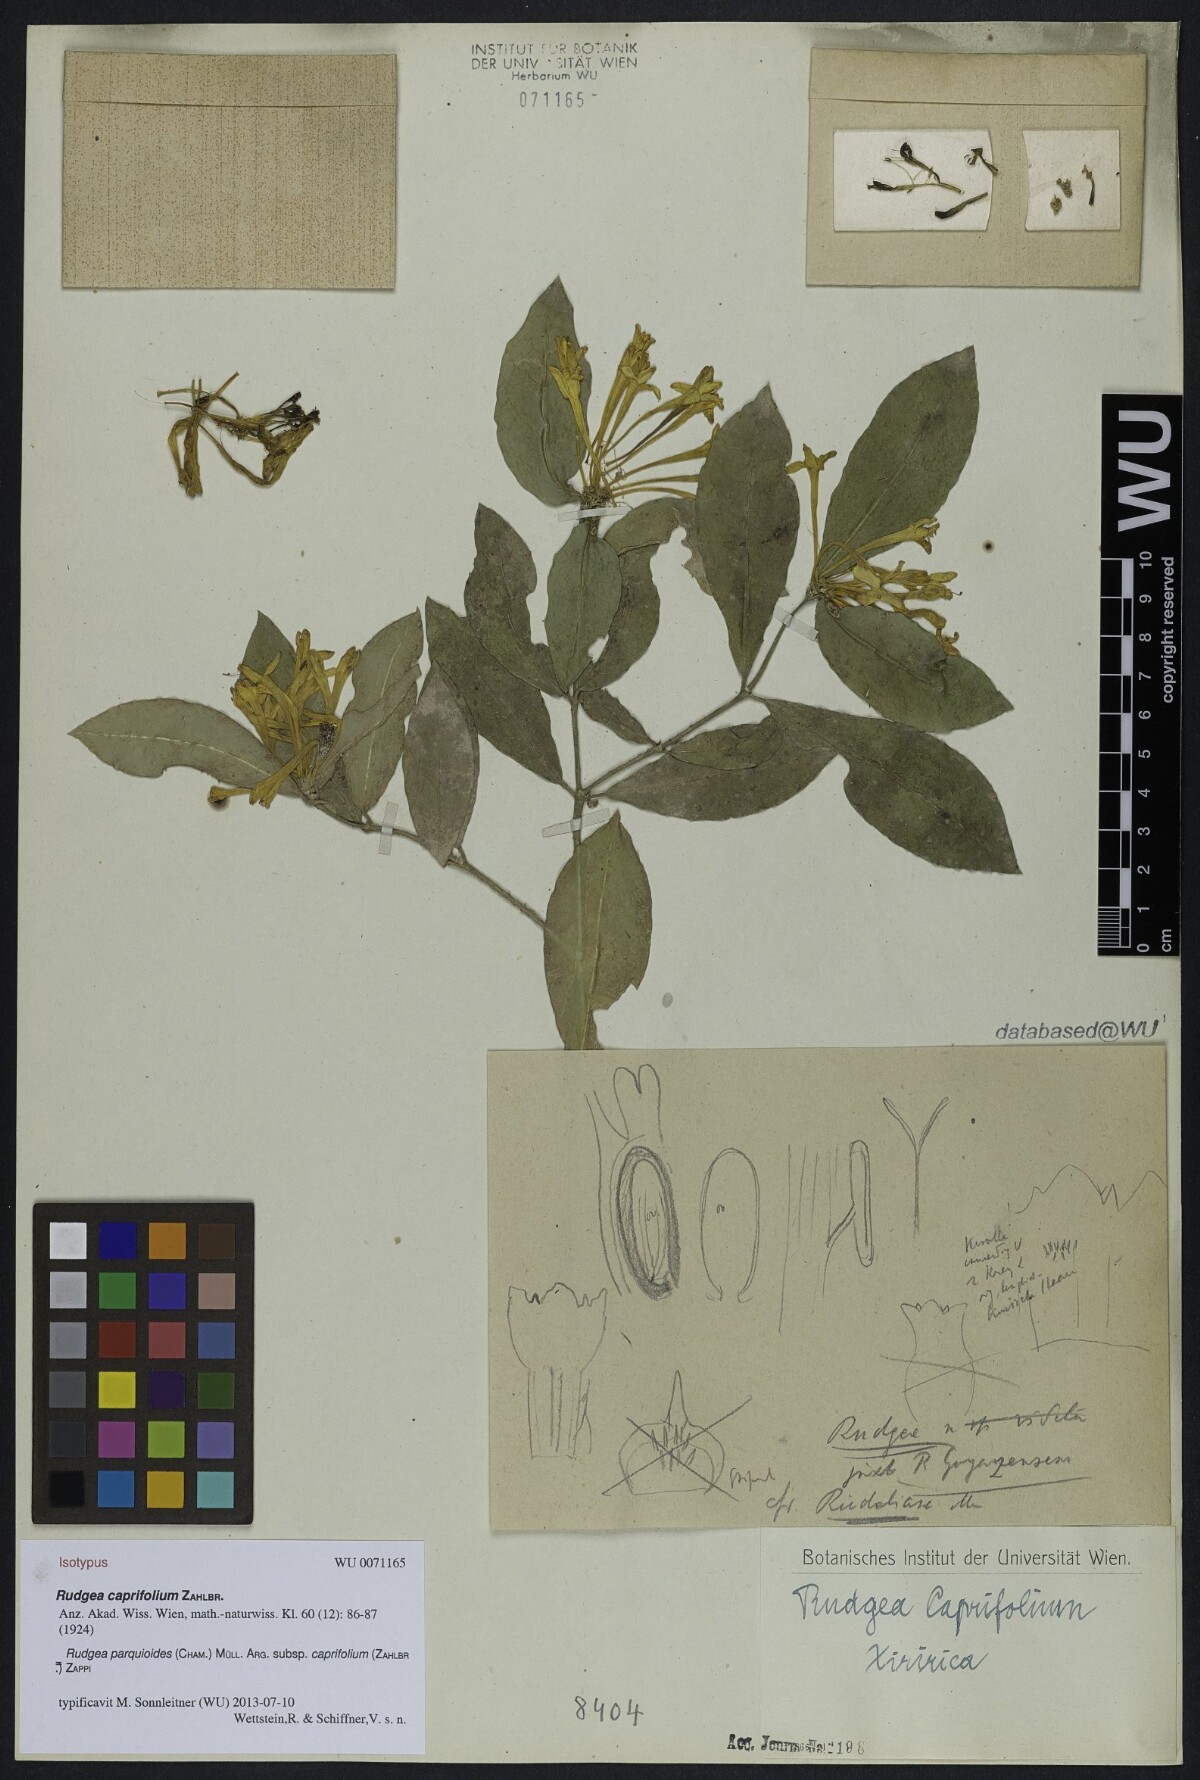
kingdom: Plantae
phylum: Tracheophyta
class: Magnoliopsida
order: Gentianales
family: Rubiaceae
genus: Rudgea
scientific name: Rudgea parquioides
